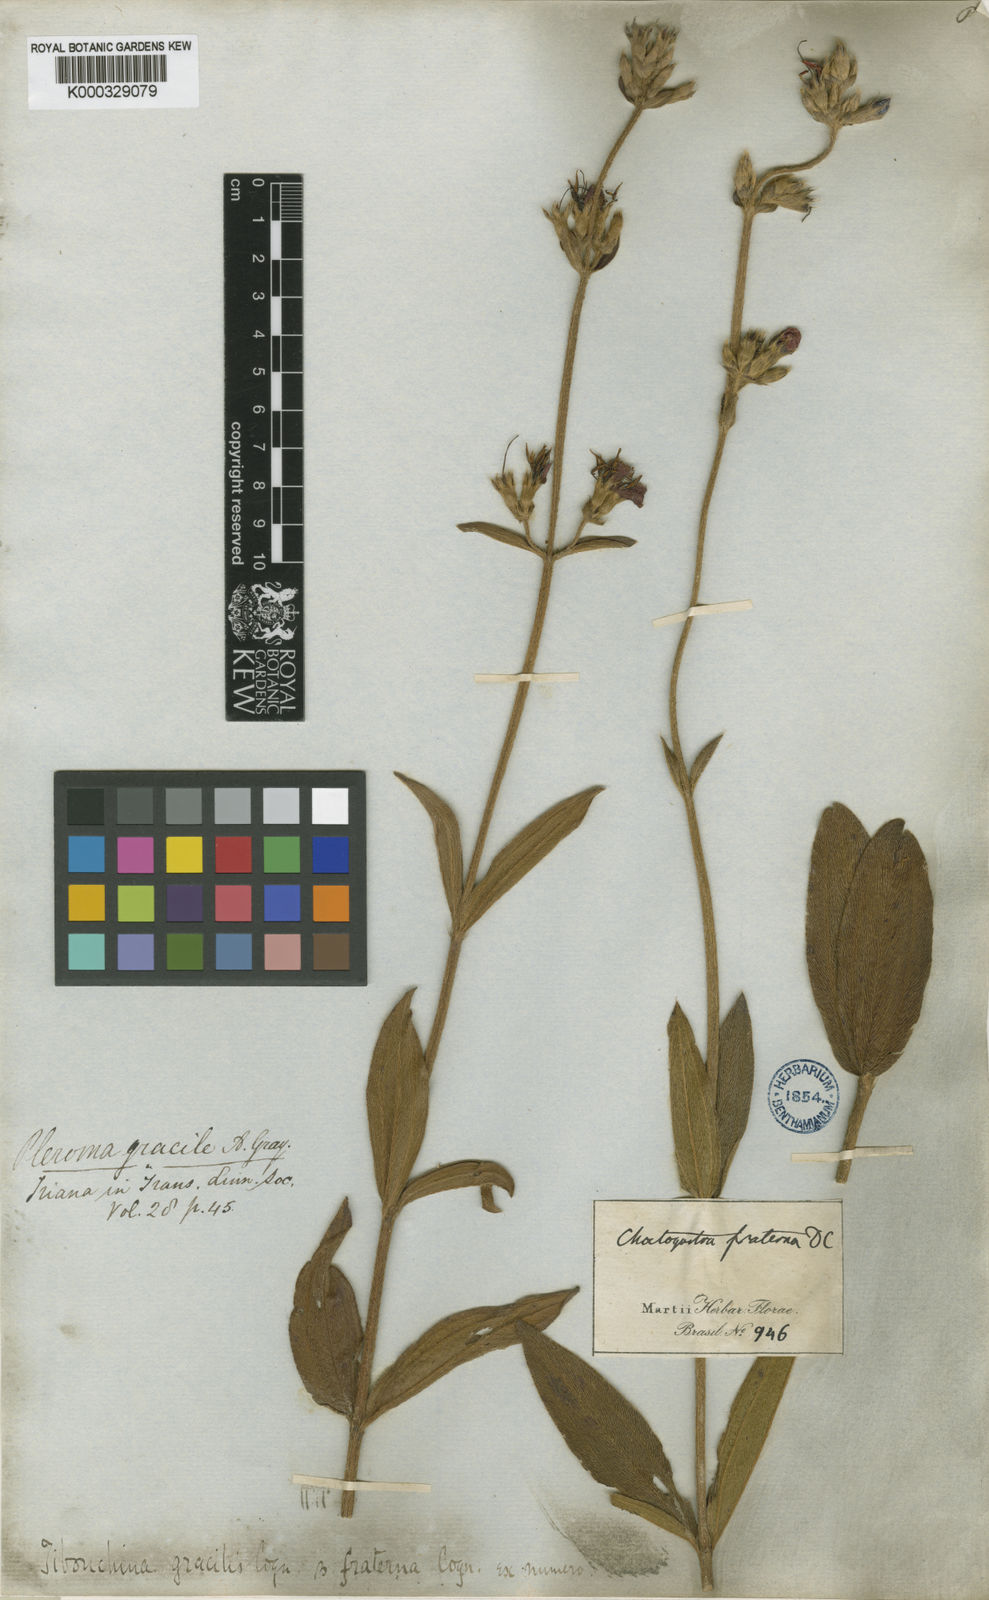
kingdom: Plantae
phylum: Tracheophyta
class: Magnoliopsida
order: Myrtales
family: Melastomataceae
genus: Chaetogastra
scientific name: Chaetogastra gracilis
